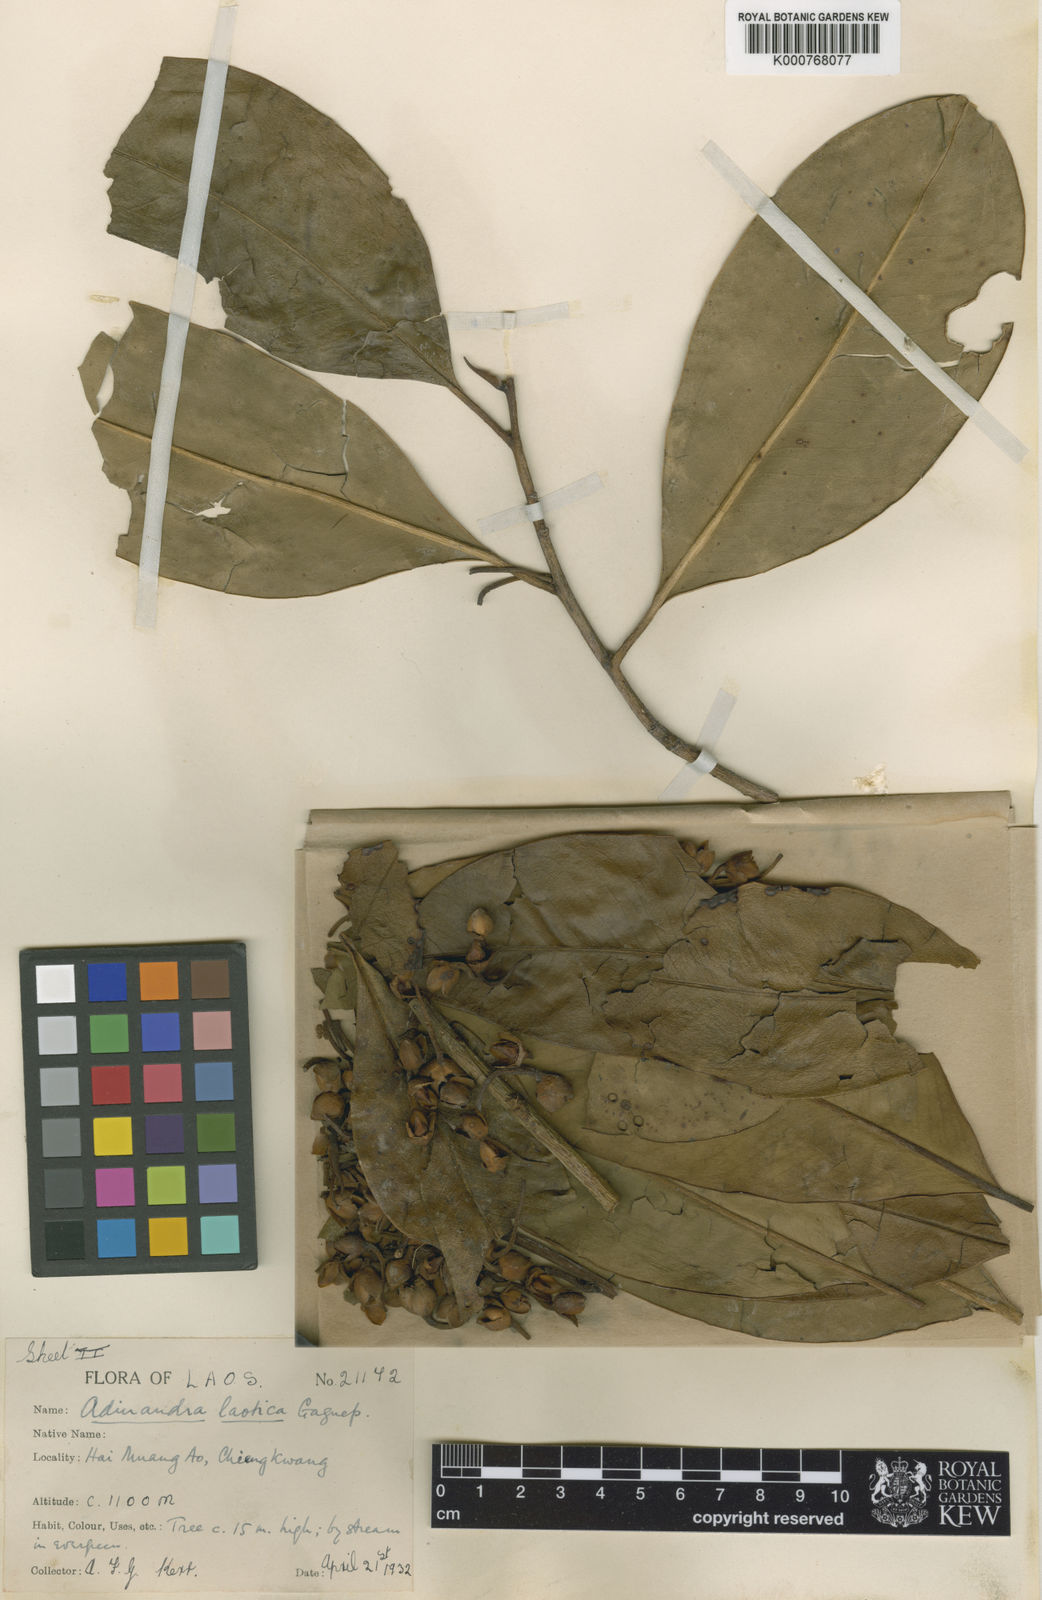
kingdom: Plantae
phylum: Tracheophyta
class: Magnoliopsida
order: Ericales
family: Pentaphylacaceae
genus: Adinandra
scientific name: Adinandra laotica
